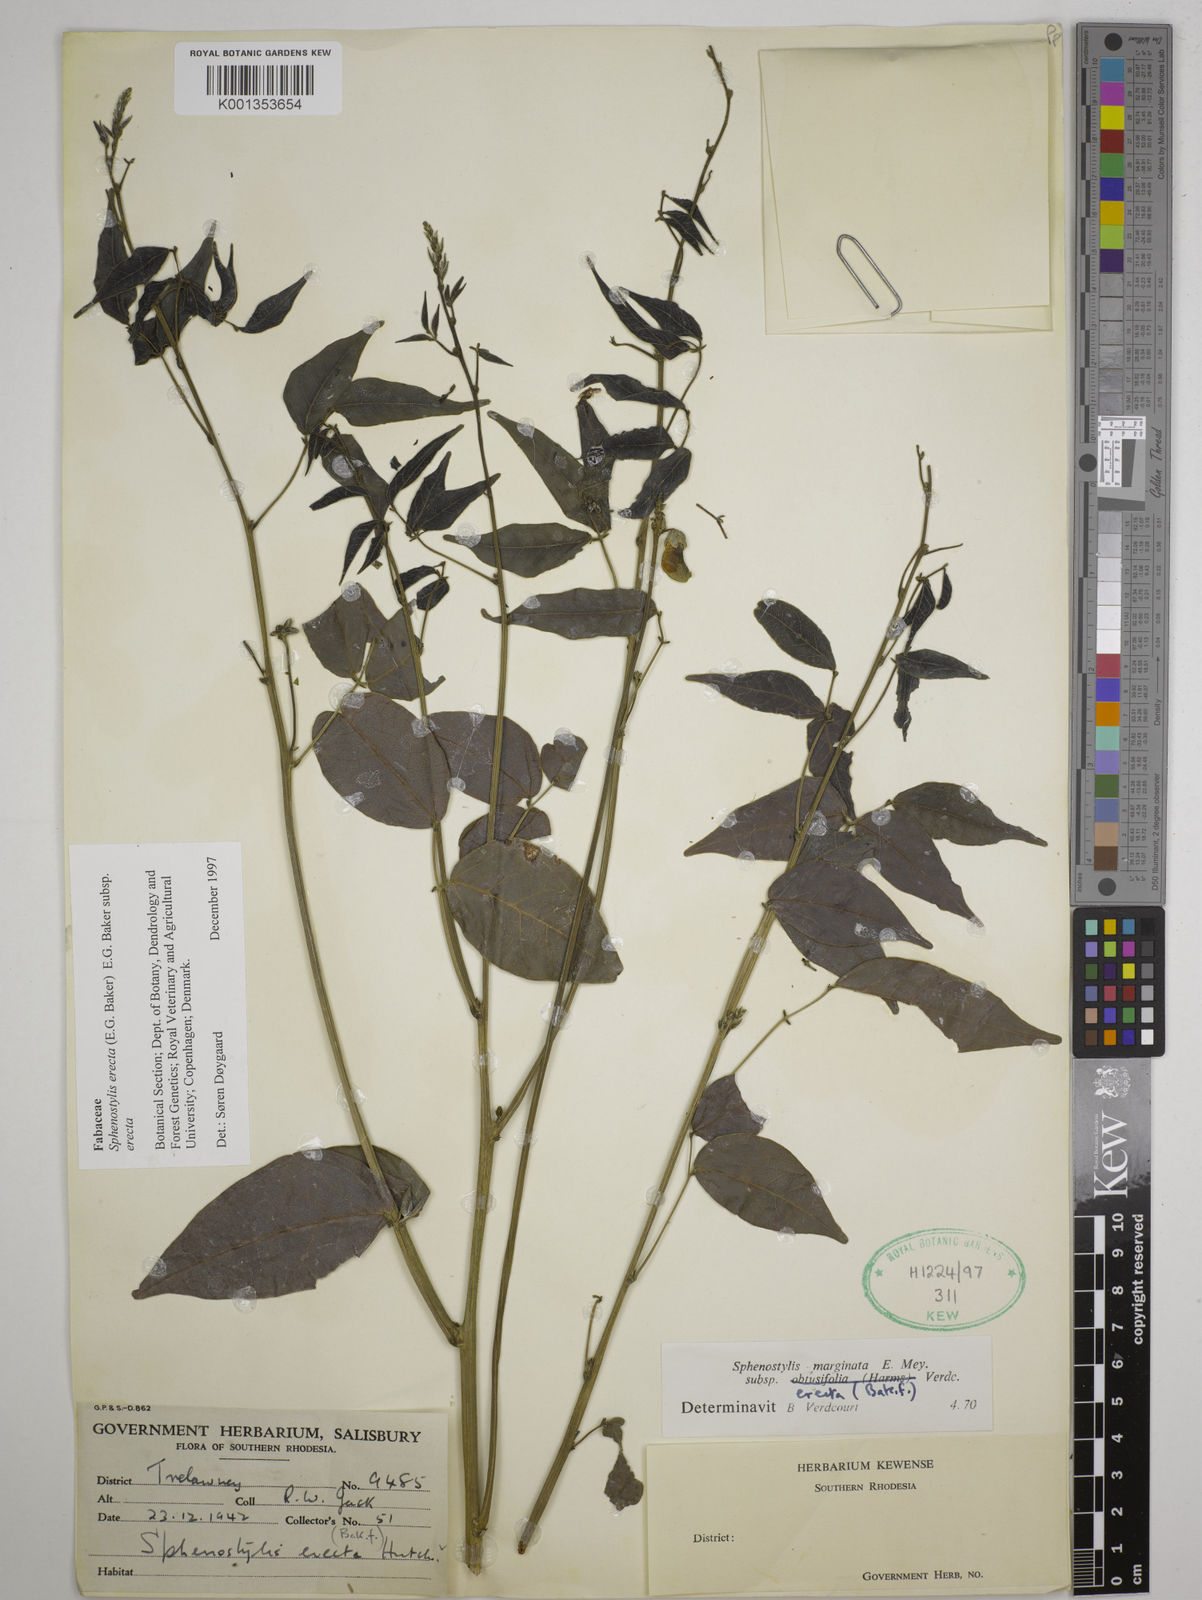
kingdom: Plantae
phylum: Tracheophyta
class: Magnoliopsida
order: Fabales
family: Fabaceae
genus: Sphenostylis
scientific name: Sphenostylis erecta
